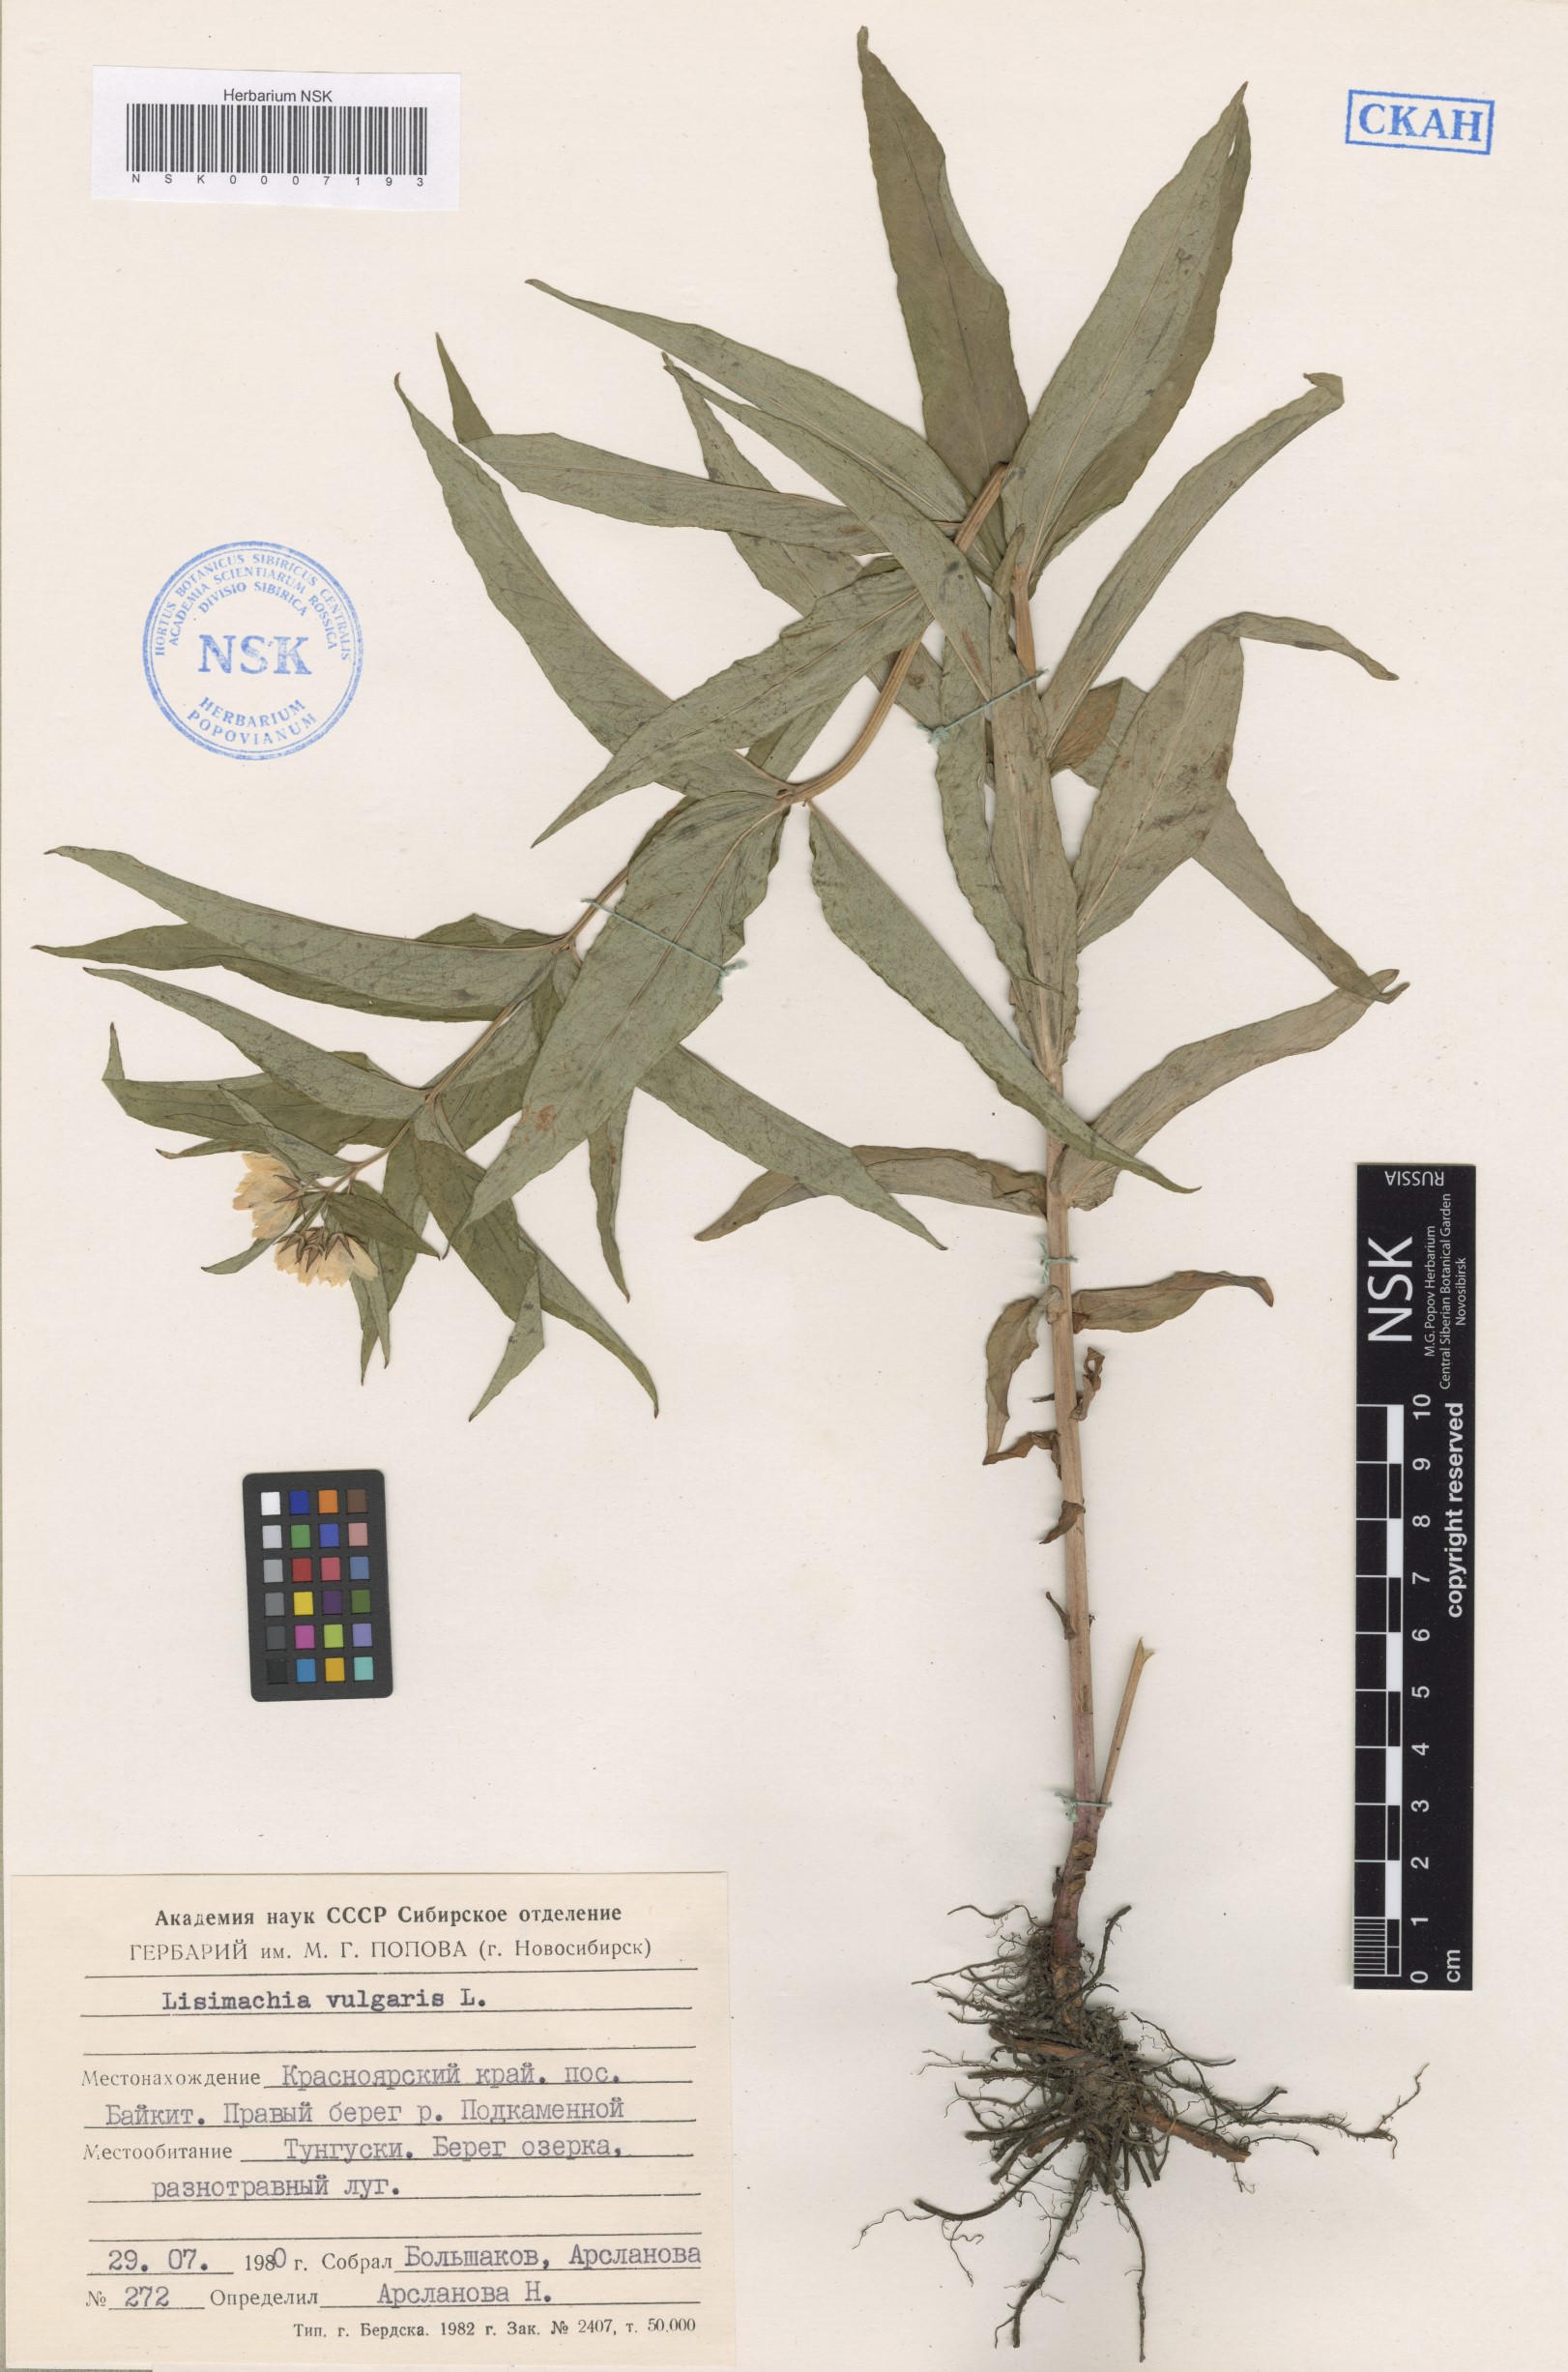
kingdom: Plantae
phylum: Tracheophyta
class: Magnoliopsida
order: Ericales
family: Primulaceae
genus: Lysimachia
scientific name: Lysimachia vulgaris
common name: Yellow loosestrife
